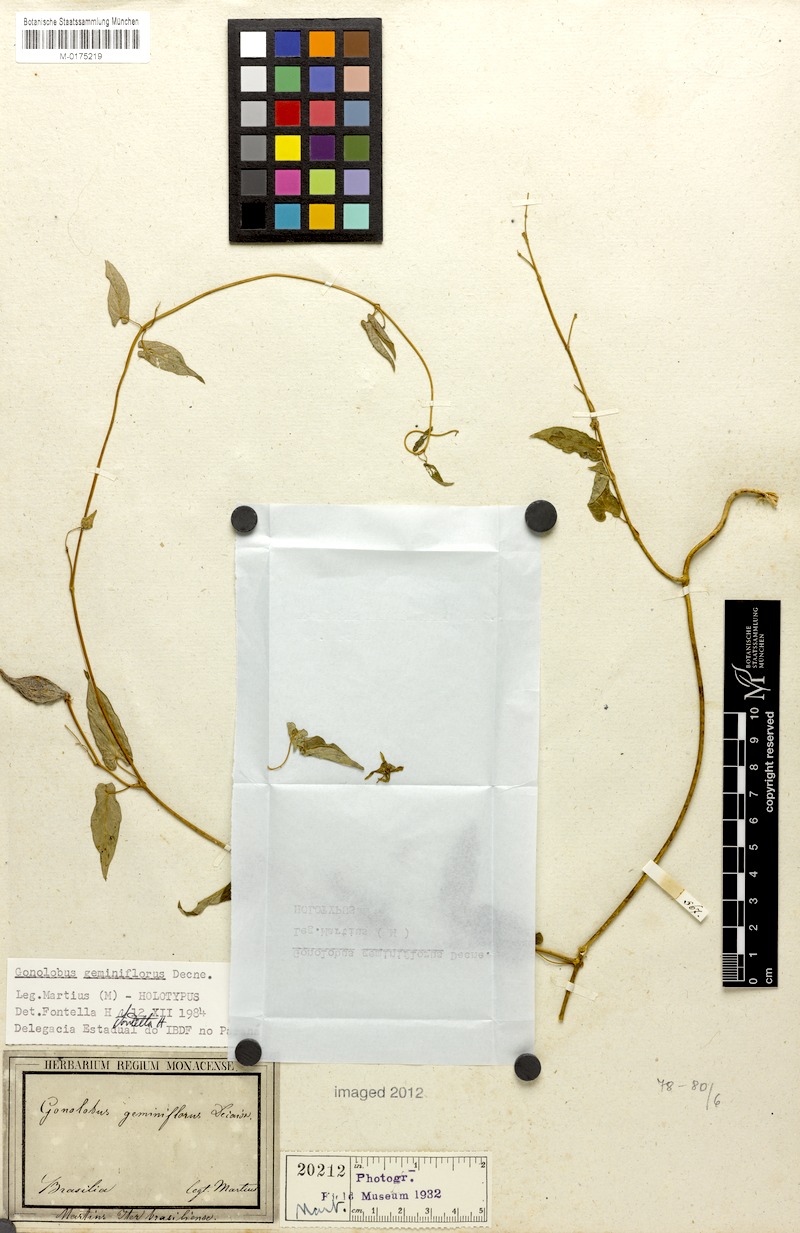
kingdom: Plantae
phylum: Tracheophyta
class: Magnoliopsida
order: Gentianales
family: Apocynaceae
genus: Diplolepis
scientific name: Diplolepis geminiflora
